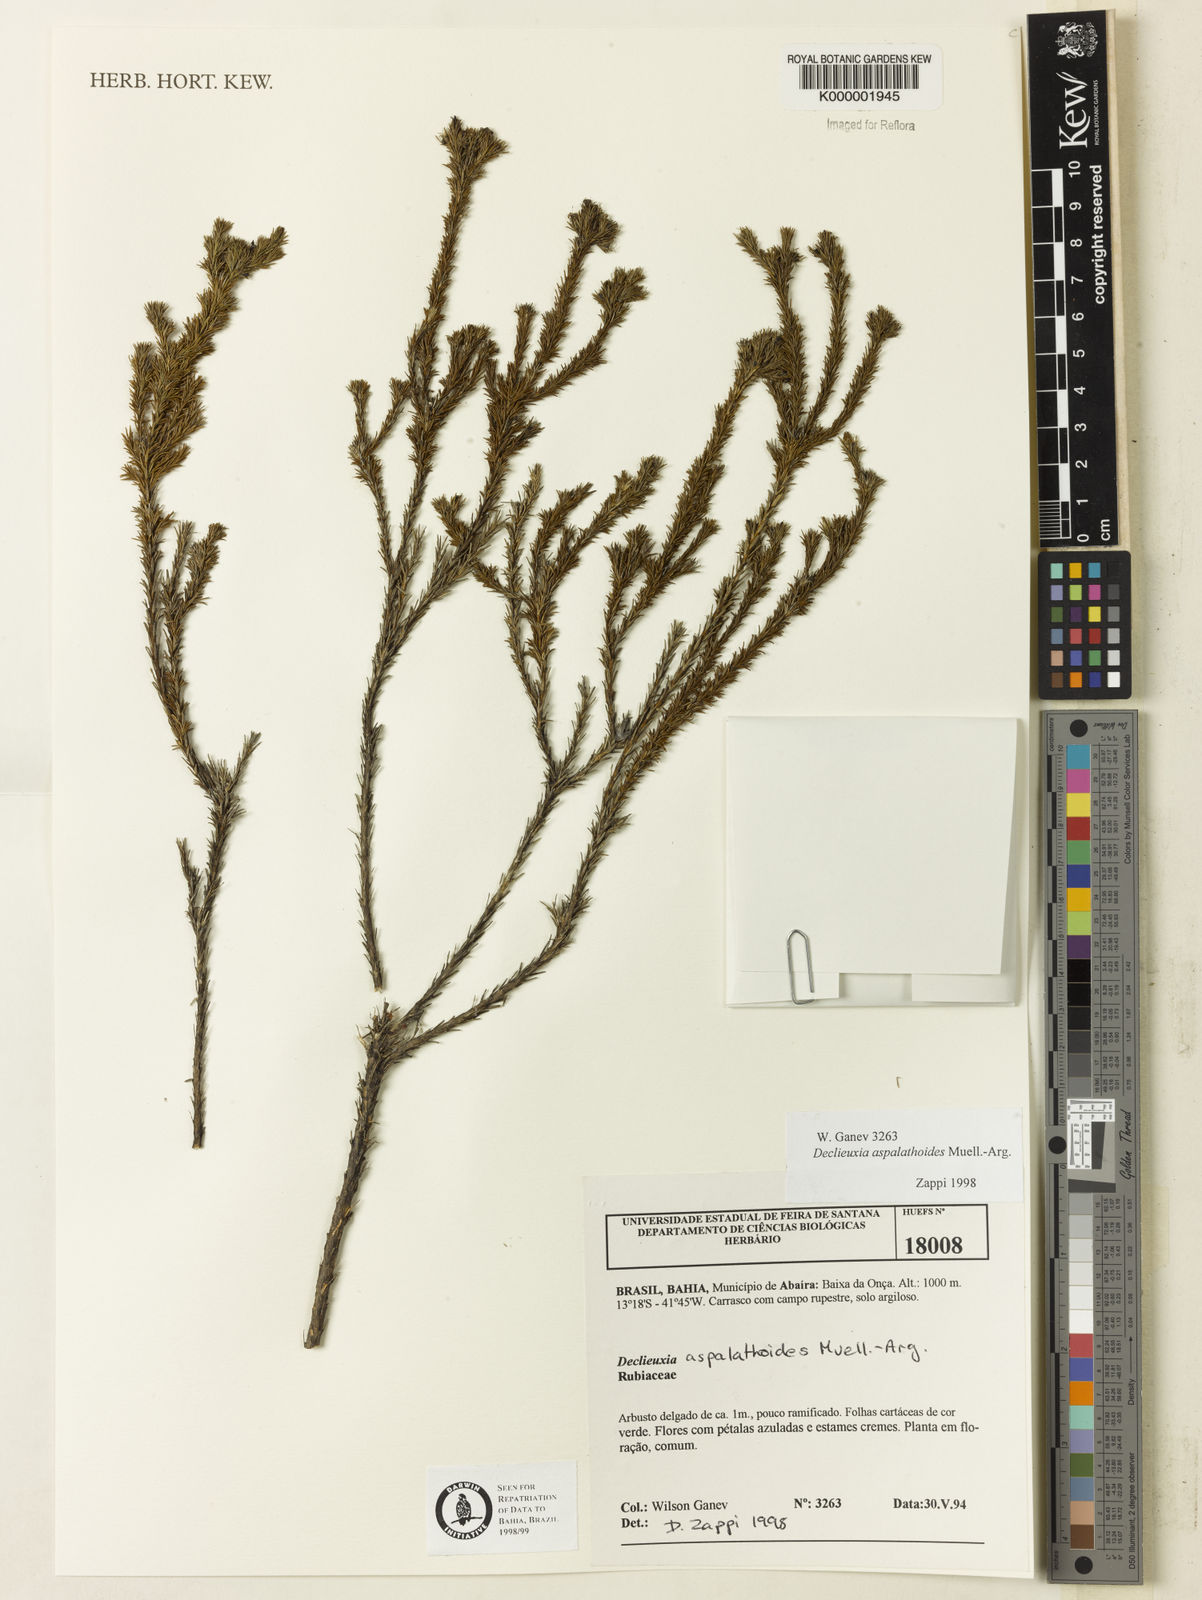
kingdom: Plantae
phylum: Tracheophyta
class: Magnoliopsida
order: Gentianales
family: Rubiaceae
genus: Declieuxia
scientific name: Declieuxia aspalathoides
